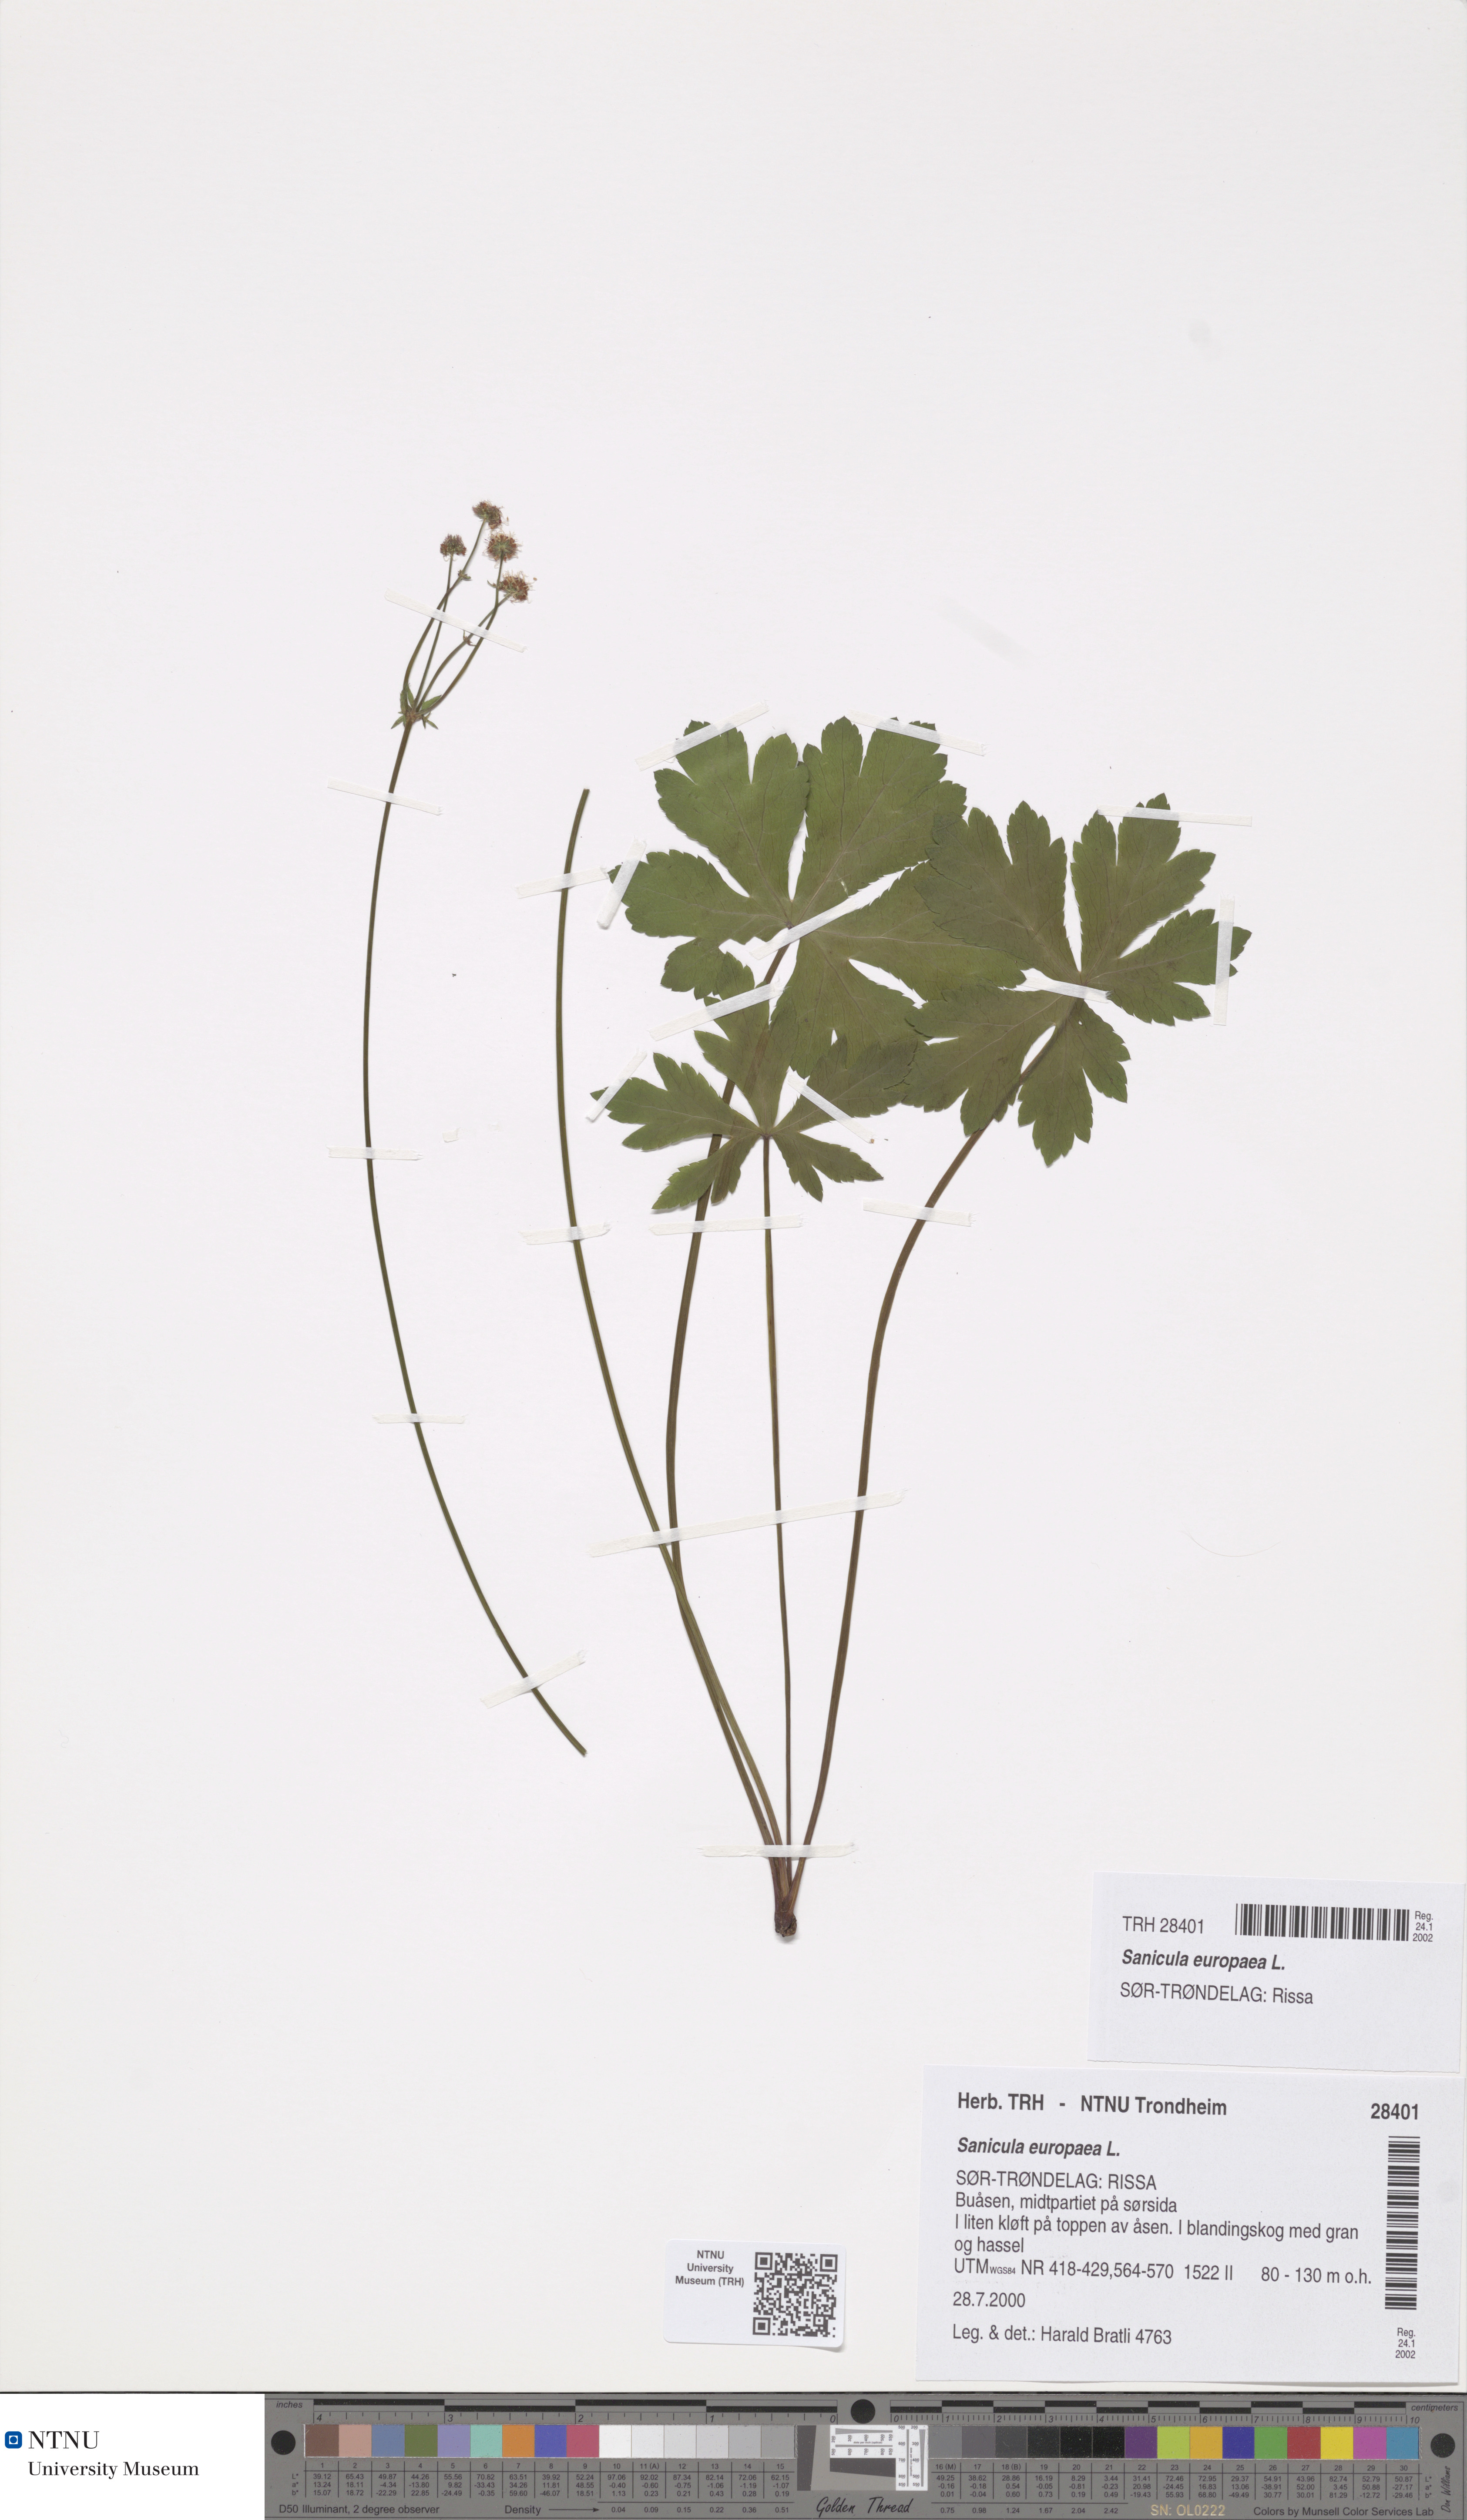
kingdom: Plantae
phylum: Tracheophyta
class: Magnoliopsida
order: Apiales
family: Apiaceae
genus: Sanicula
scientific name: Sanicula europaea
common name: Sanicle
